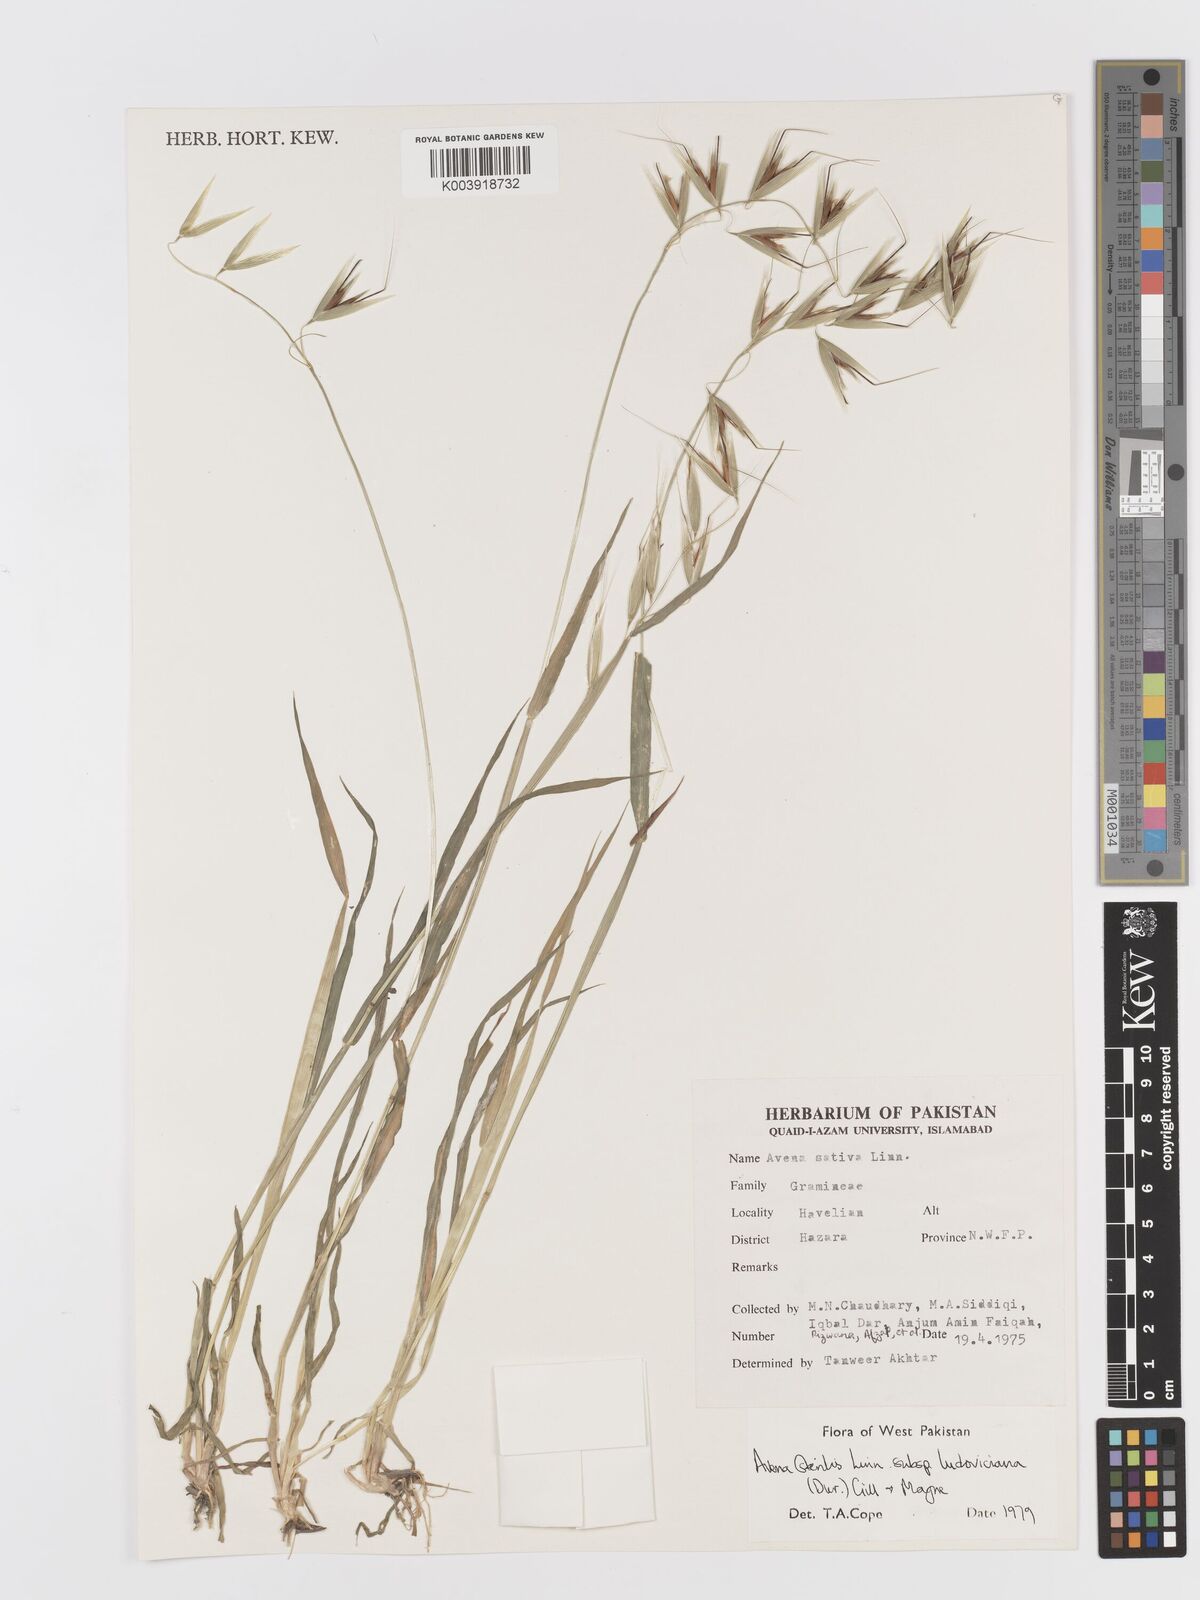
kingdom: Plantae
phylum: Tracheophyta
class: Liliopsida
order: Poales
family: Poaceae
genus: Avena
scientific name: Avena sterilis
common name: Animated oat
